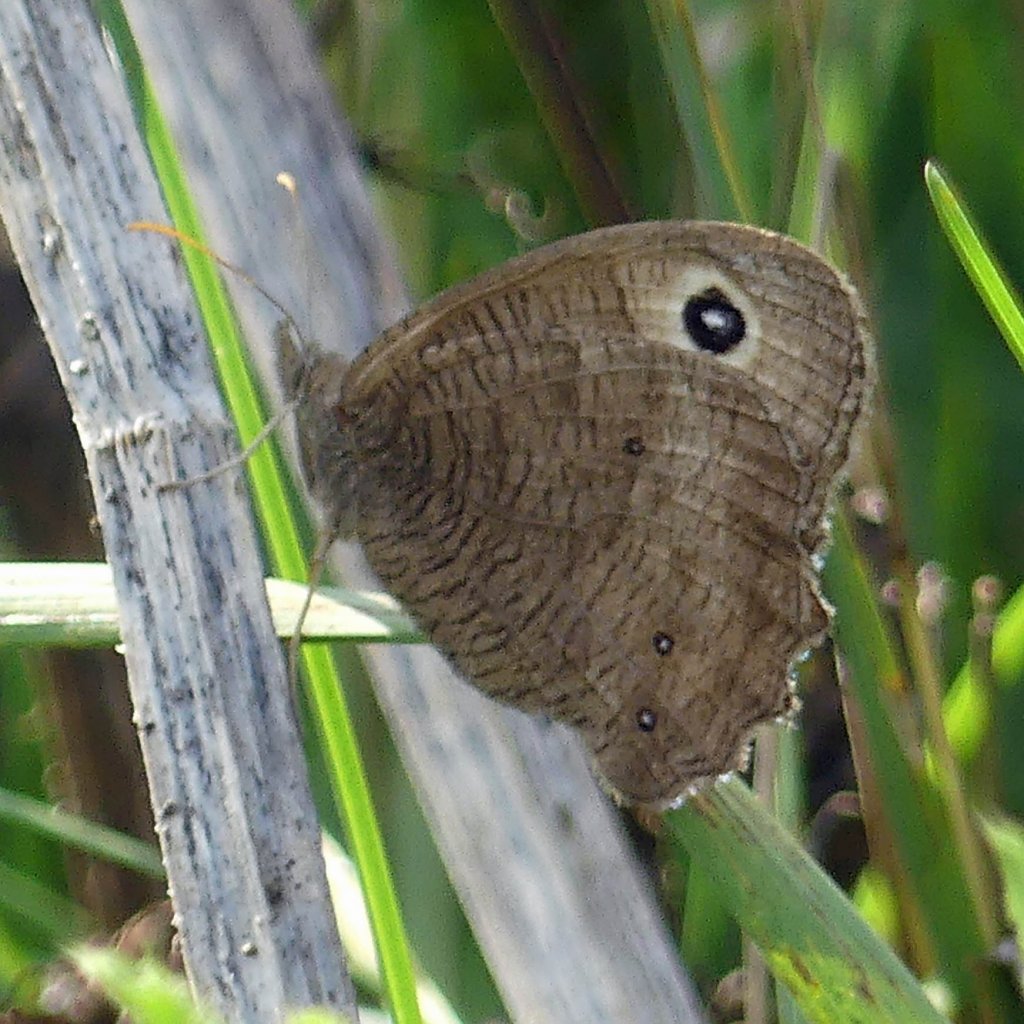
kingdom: Animalia
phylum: Arthropoda
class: Insecta
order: Lepidoptera
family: Nymphalidae
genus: Cercyonis
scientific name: Cercyonis pegala
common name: Common Wood-Nymph
